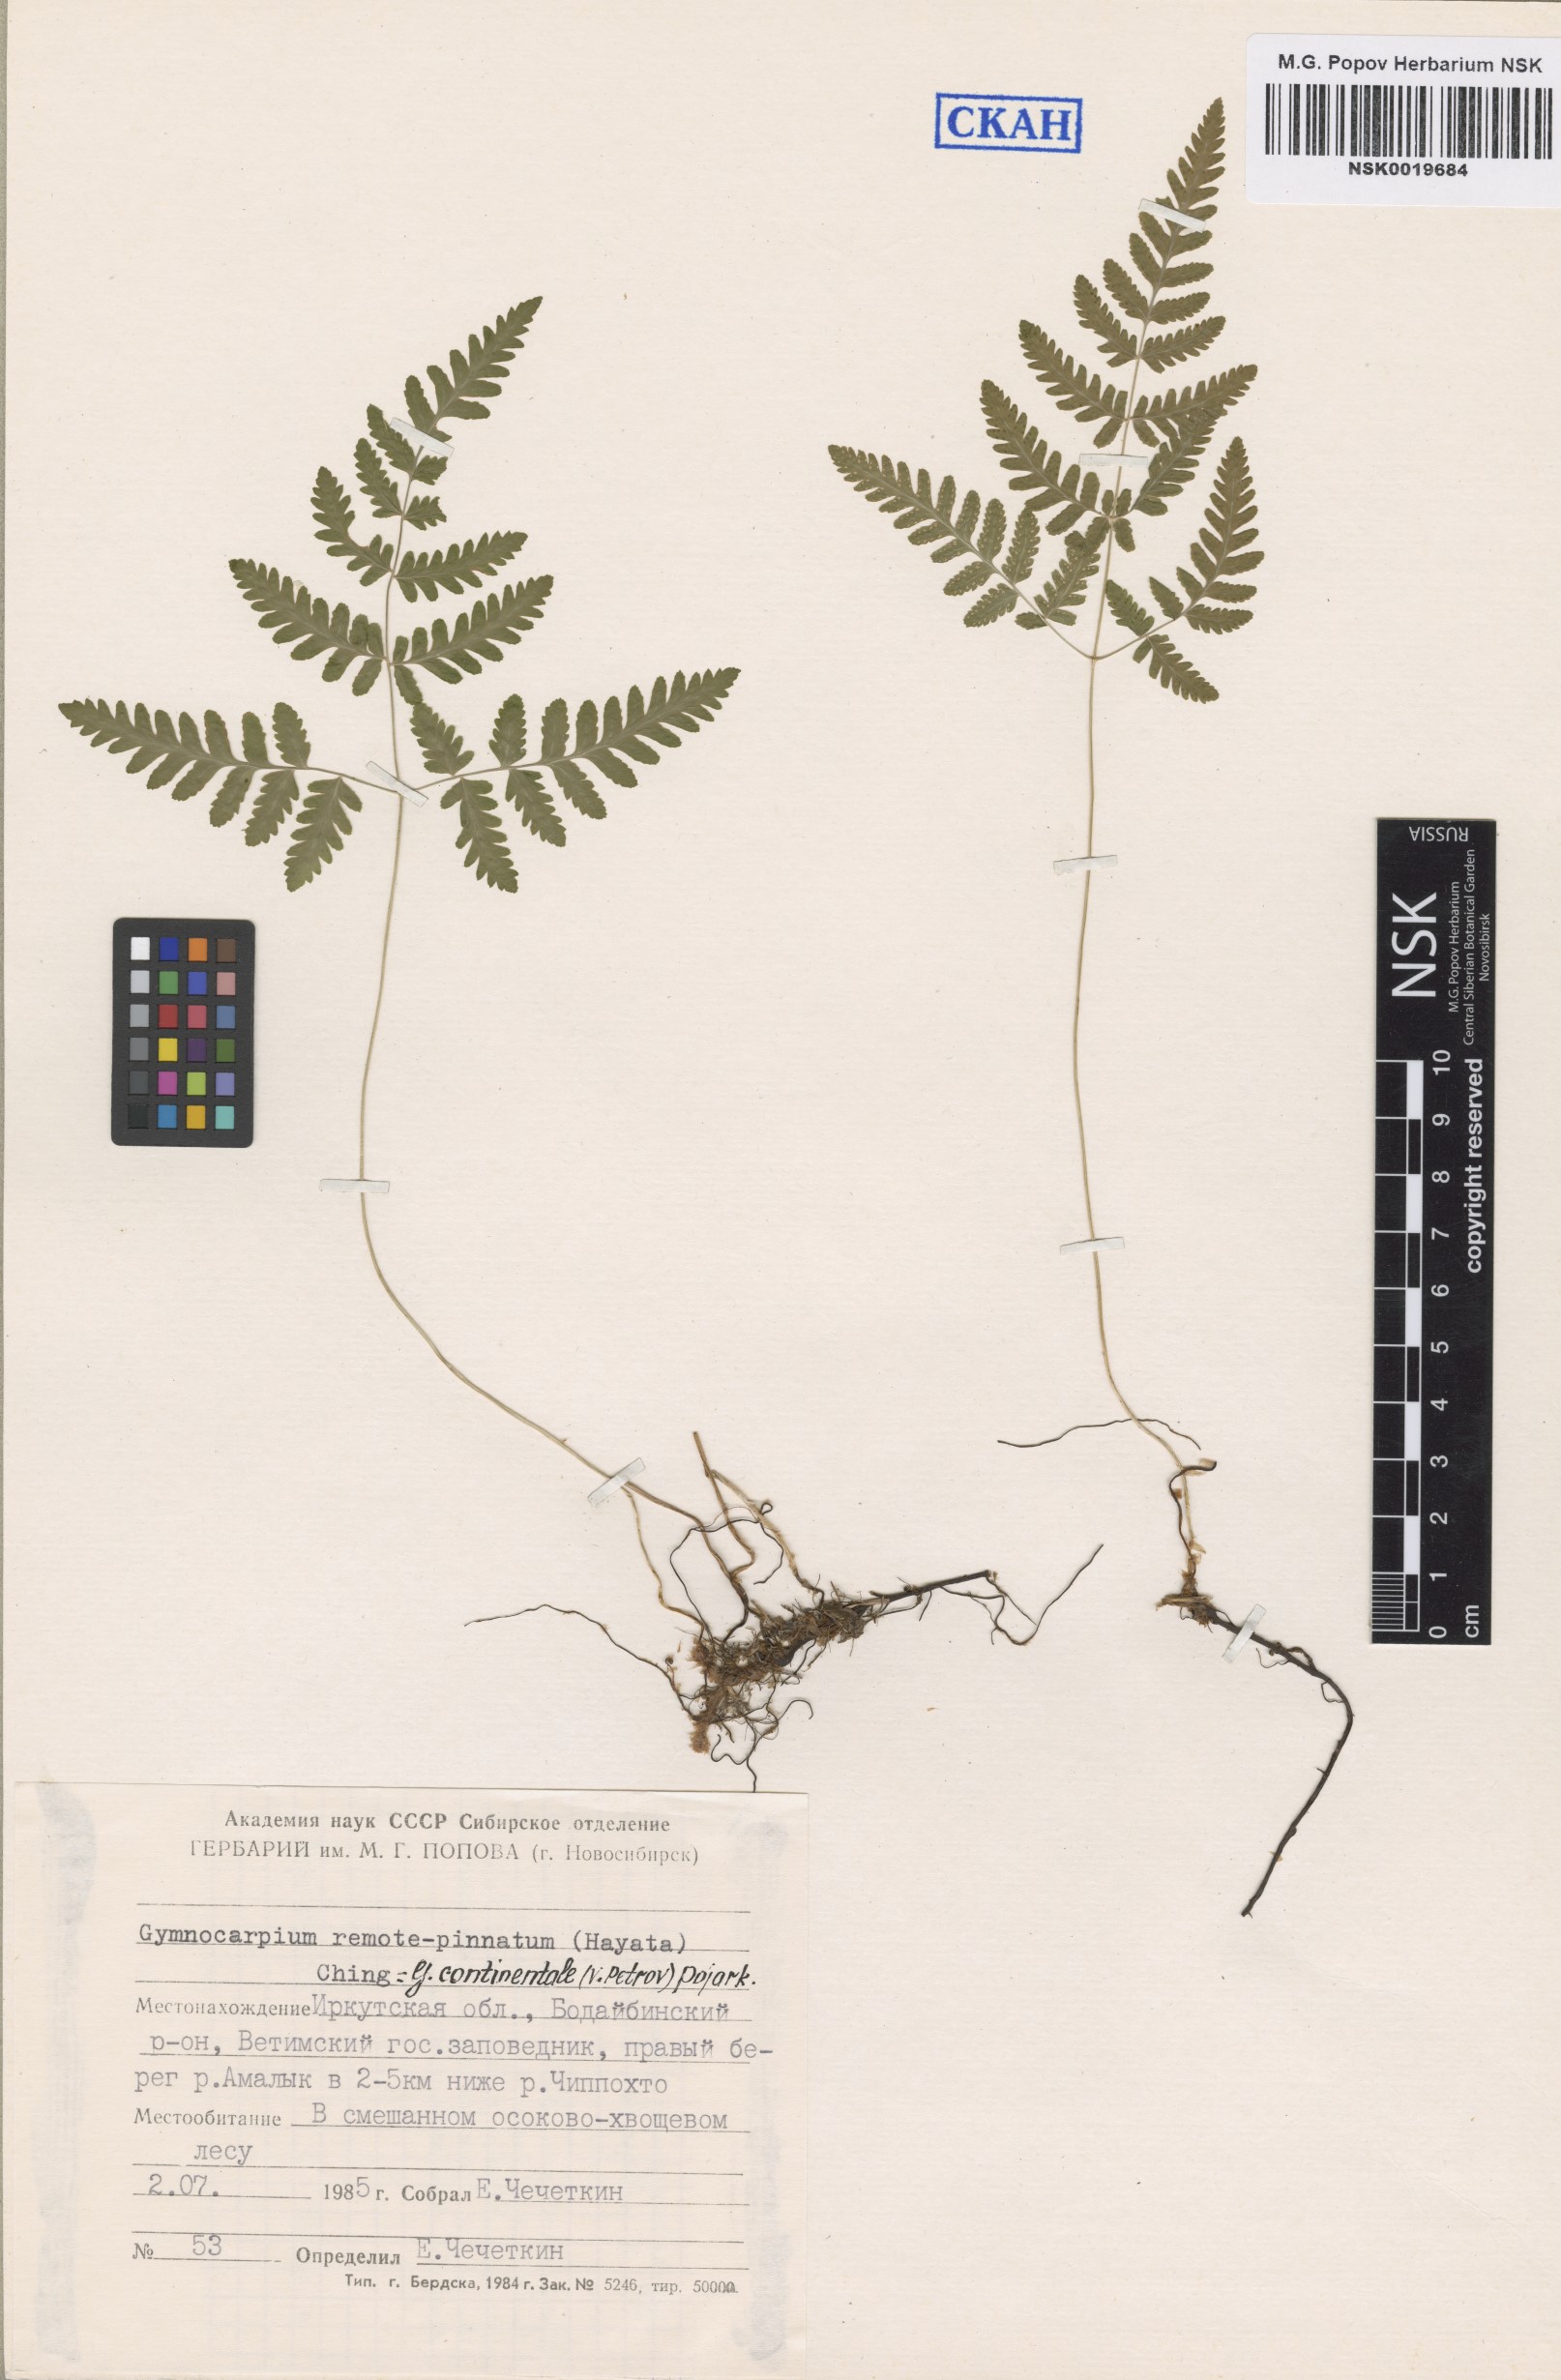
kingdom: Plantae
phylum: Tracheophyta
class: Polypodiopsida
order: Polypodiales
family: Cystopteridaceae
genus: Gymnocarpium
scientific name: Gymnocarpium continentale
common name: Asian oak fern
